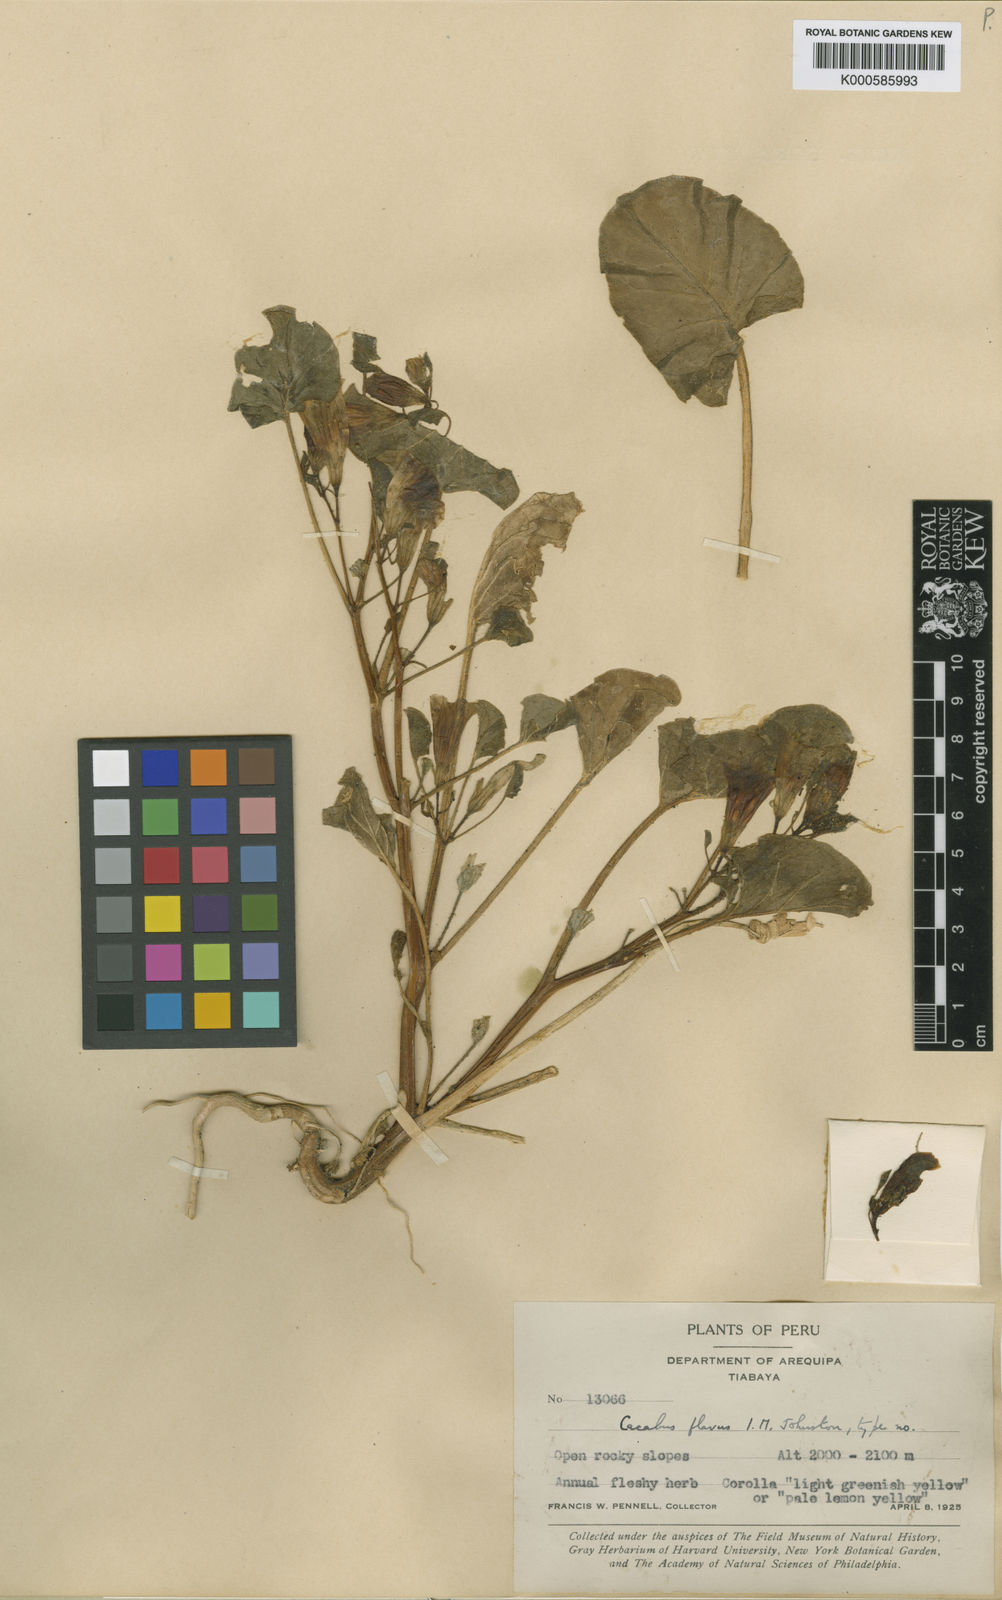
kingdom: Plantae
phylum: Tracheophyta
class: Magnoliopsida
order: Solanales
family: Solanaceae
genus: Exodeconus
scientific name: Exodeconus flavus
